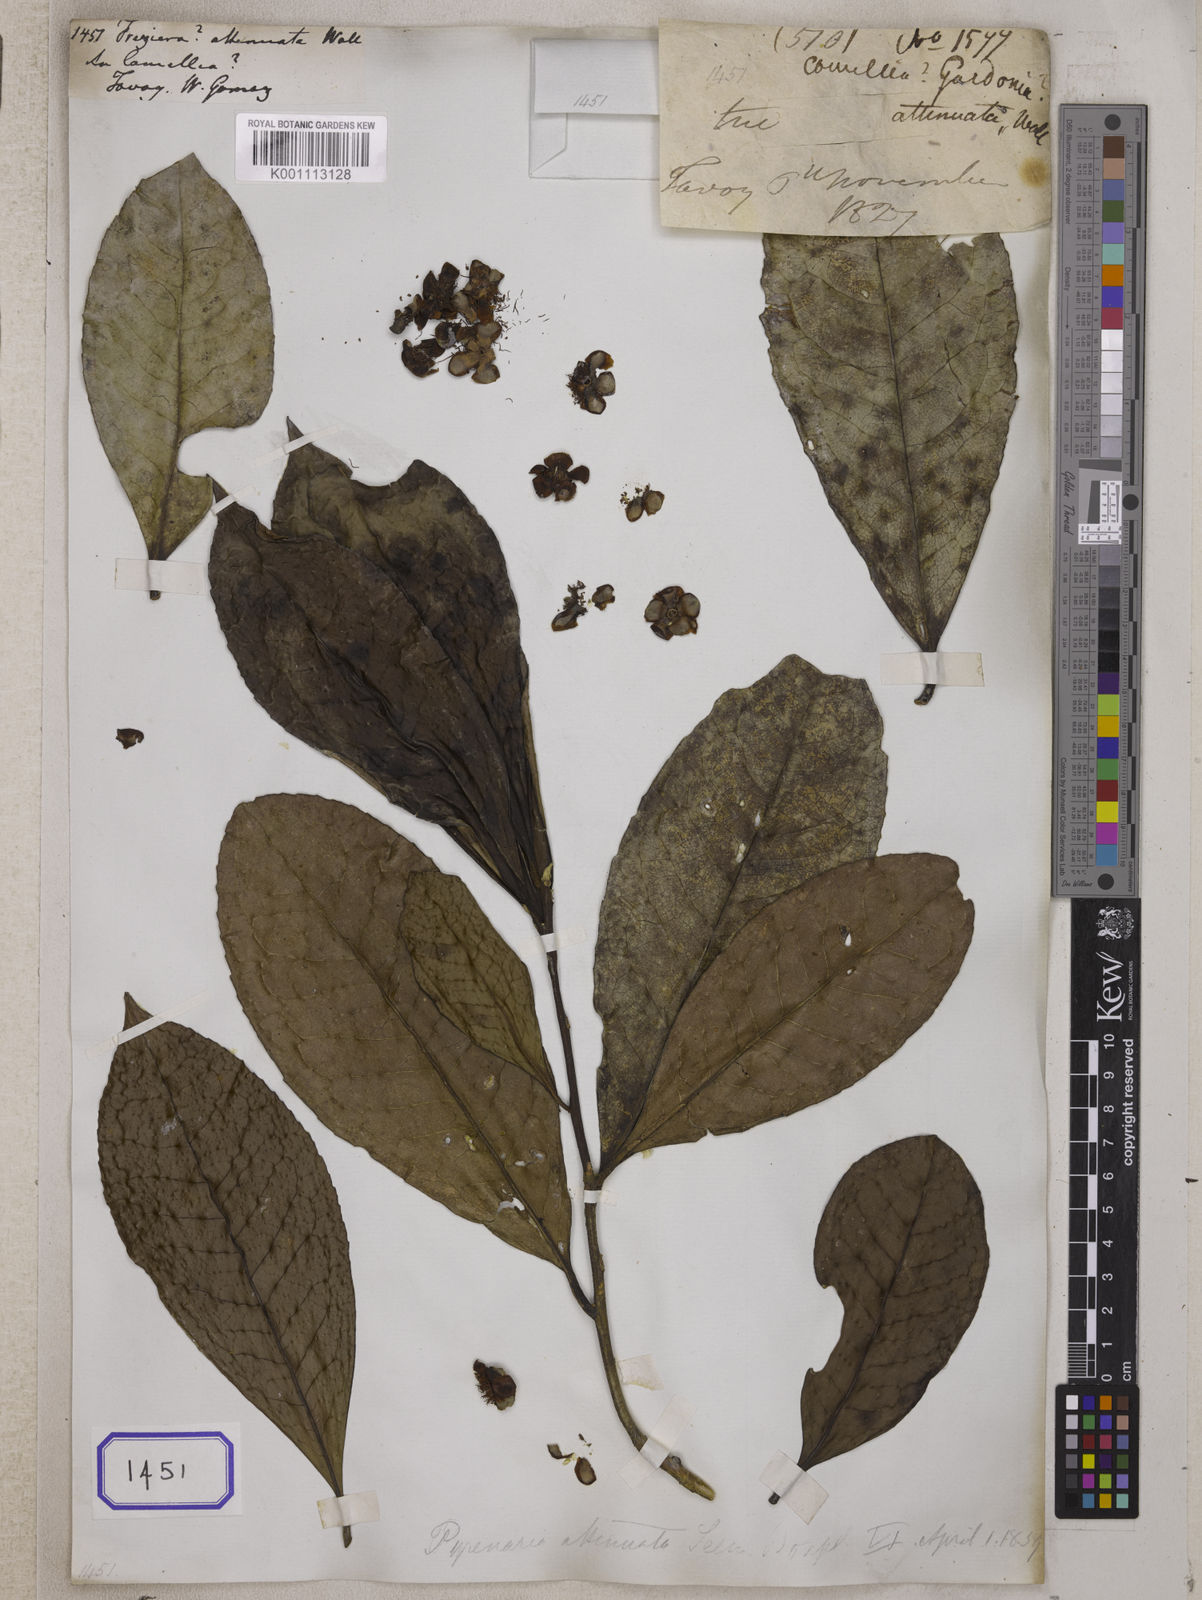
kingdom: Plantae
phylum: Tracheophyta
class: Magnoliopsida
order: Ericales
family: Theaceae
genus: Pyrenaria
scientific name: Pyrenaria attenuata
